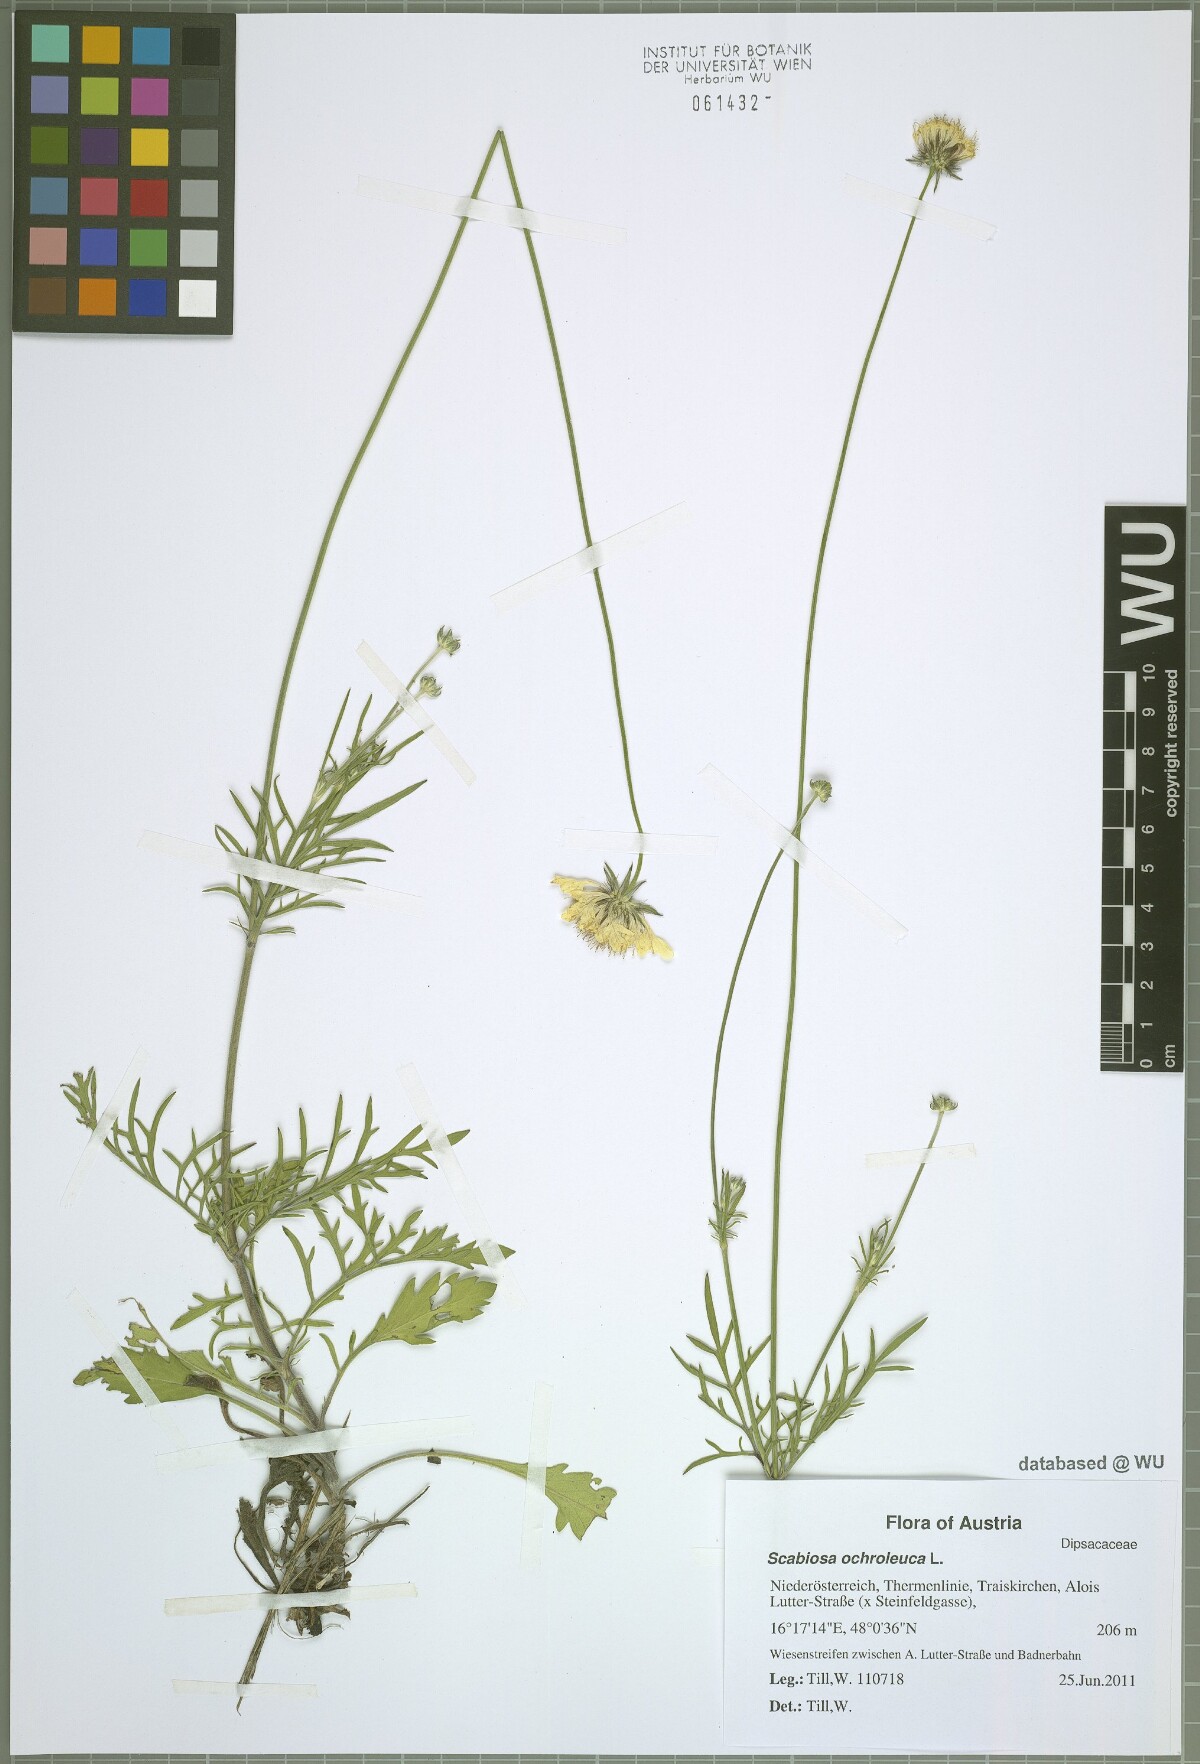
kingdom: Plantae
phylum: Tracheophyta
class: Magnoliopsida
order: Dipsacales
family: Caprifoliaceae
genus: Scabiosa
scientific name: Scabiosa ochroleuca
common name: Cream pincushions
